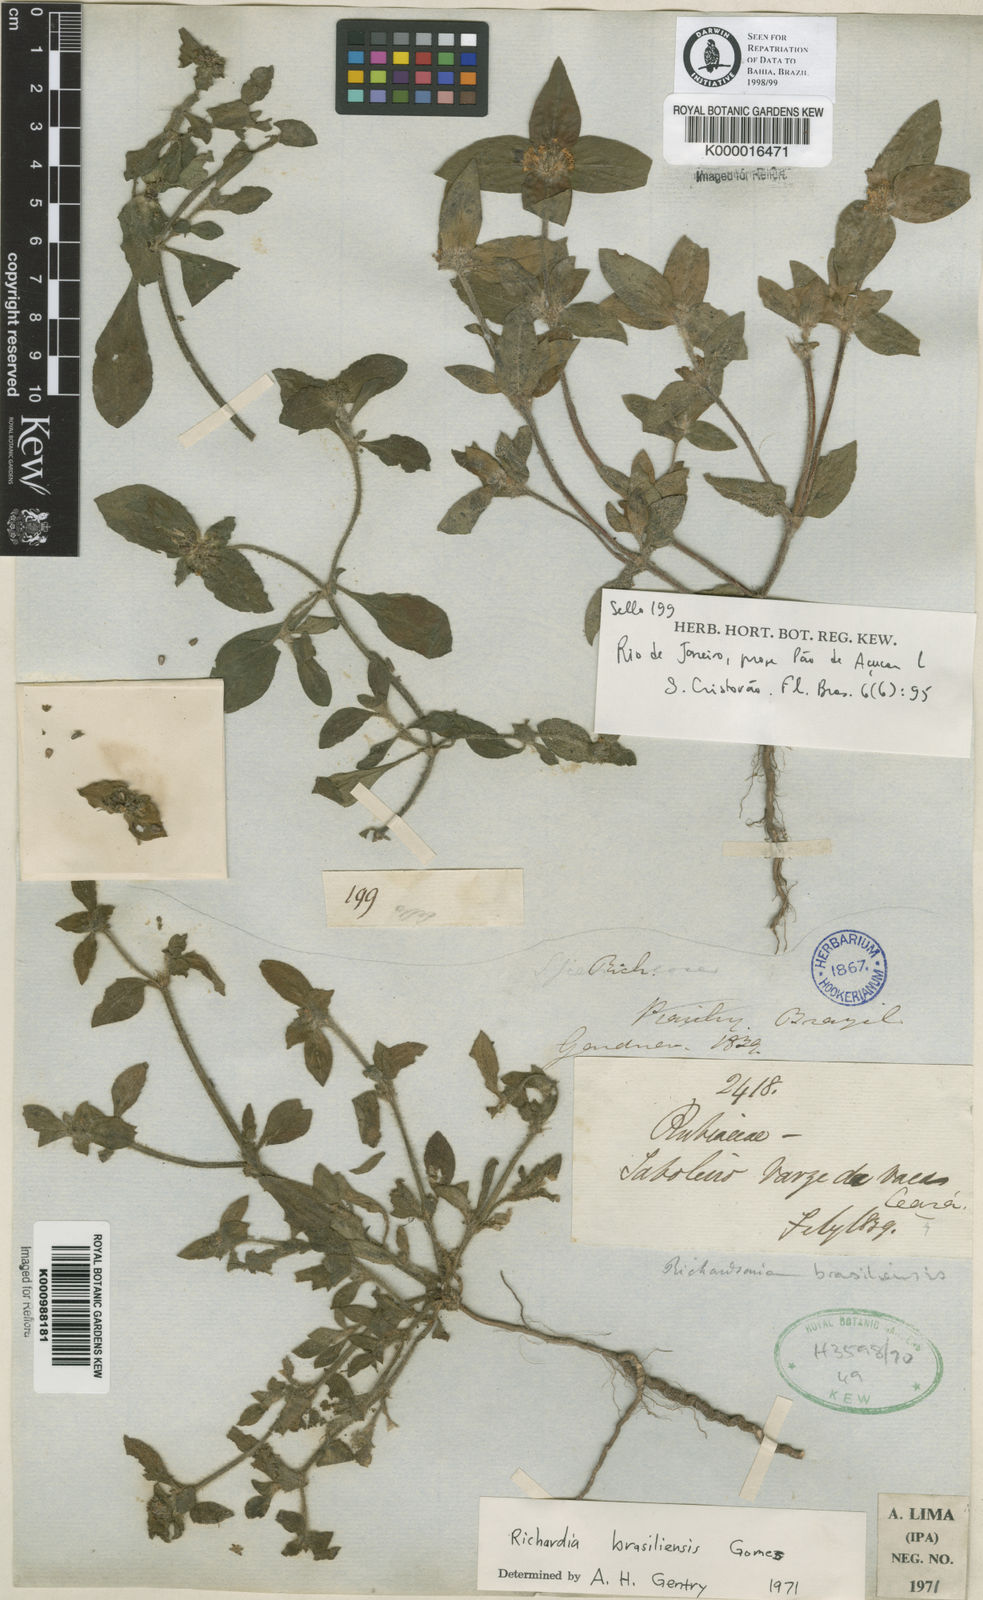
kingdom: Plantae
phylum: Tracheophyta
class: Magnoliopsida
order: Gentianales
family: Rubiaceae
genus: Richardia
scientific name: Richardia brasiliensis
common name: Tropical mexican clover
